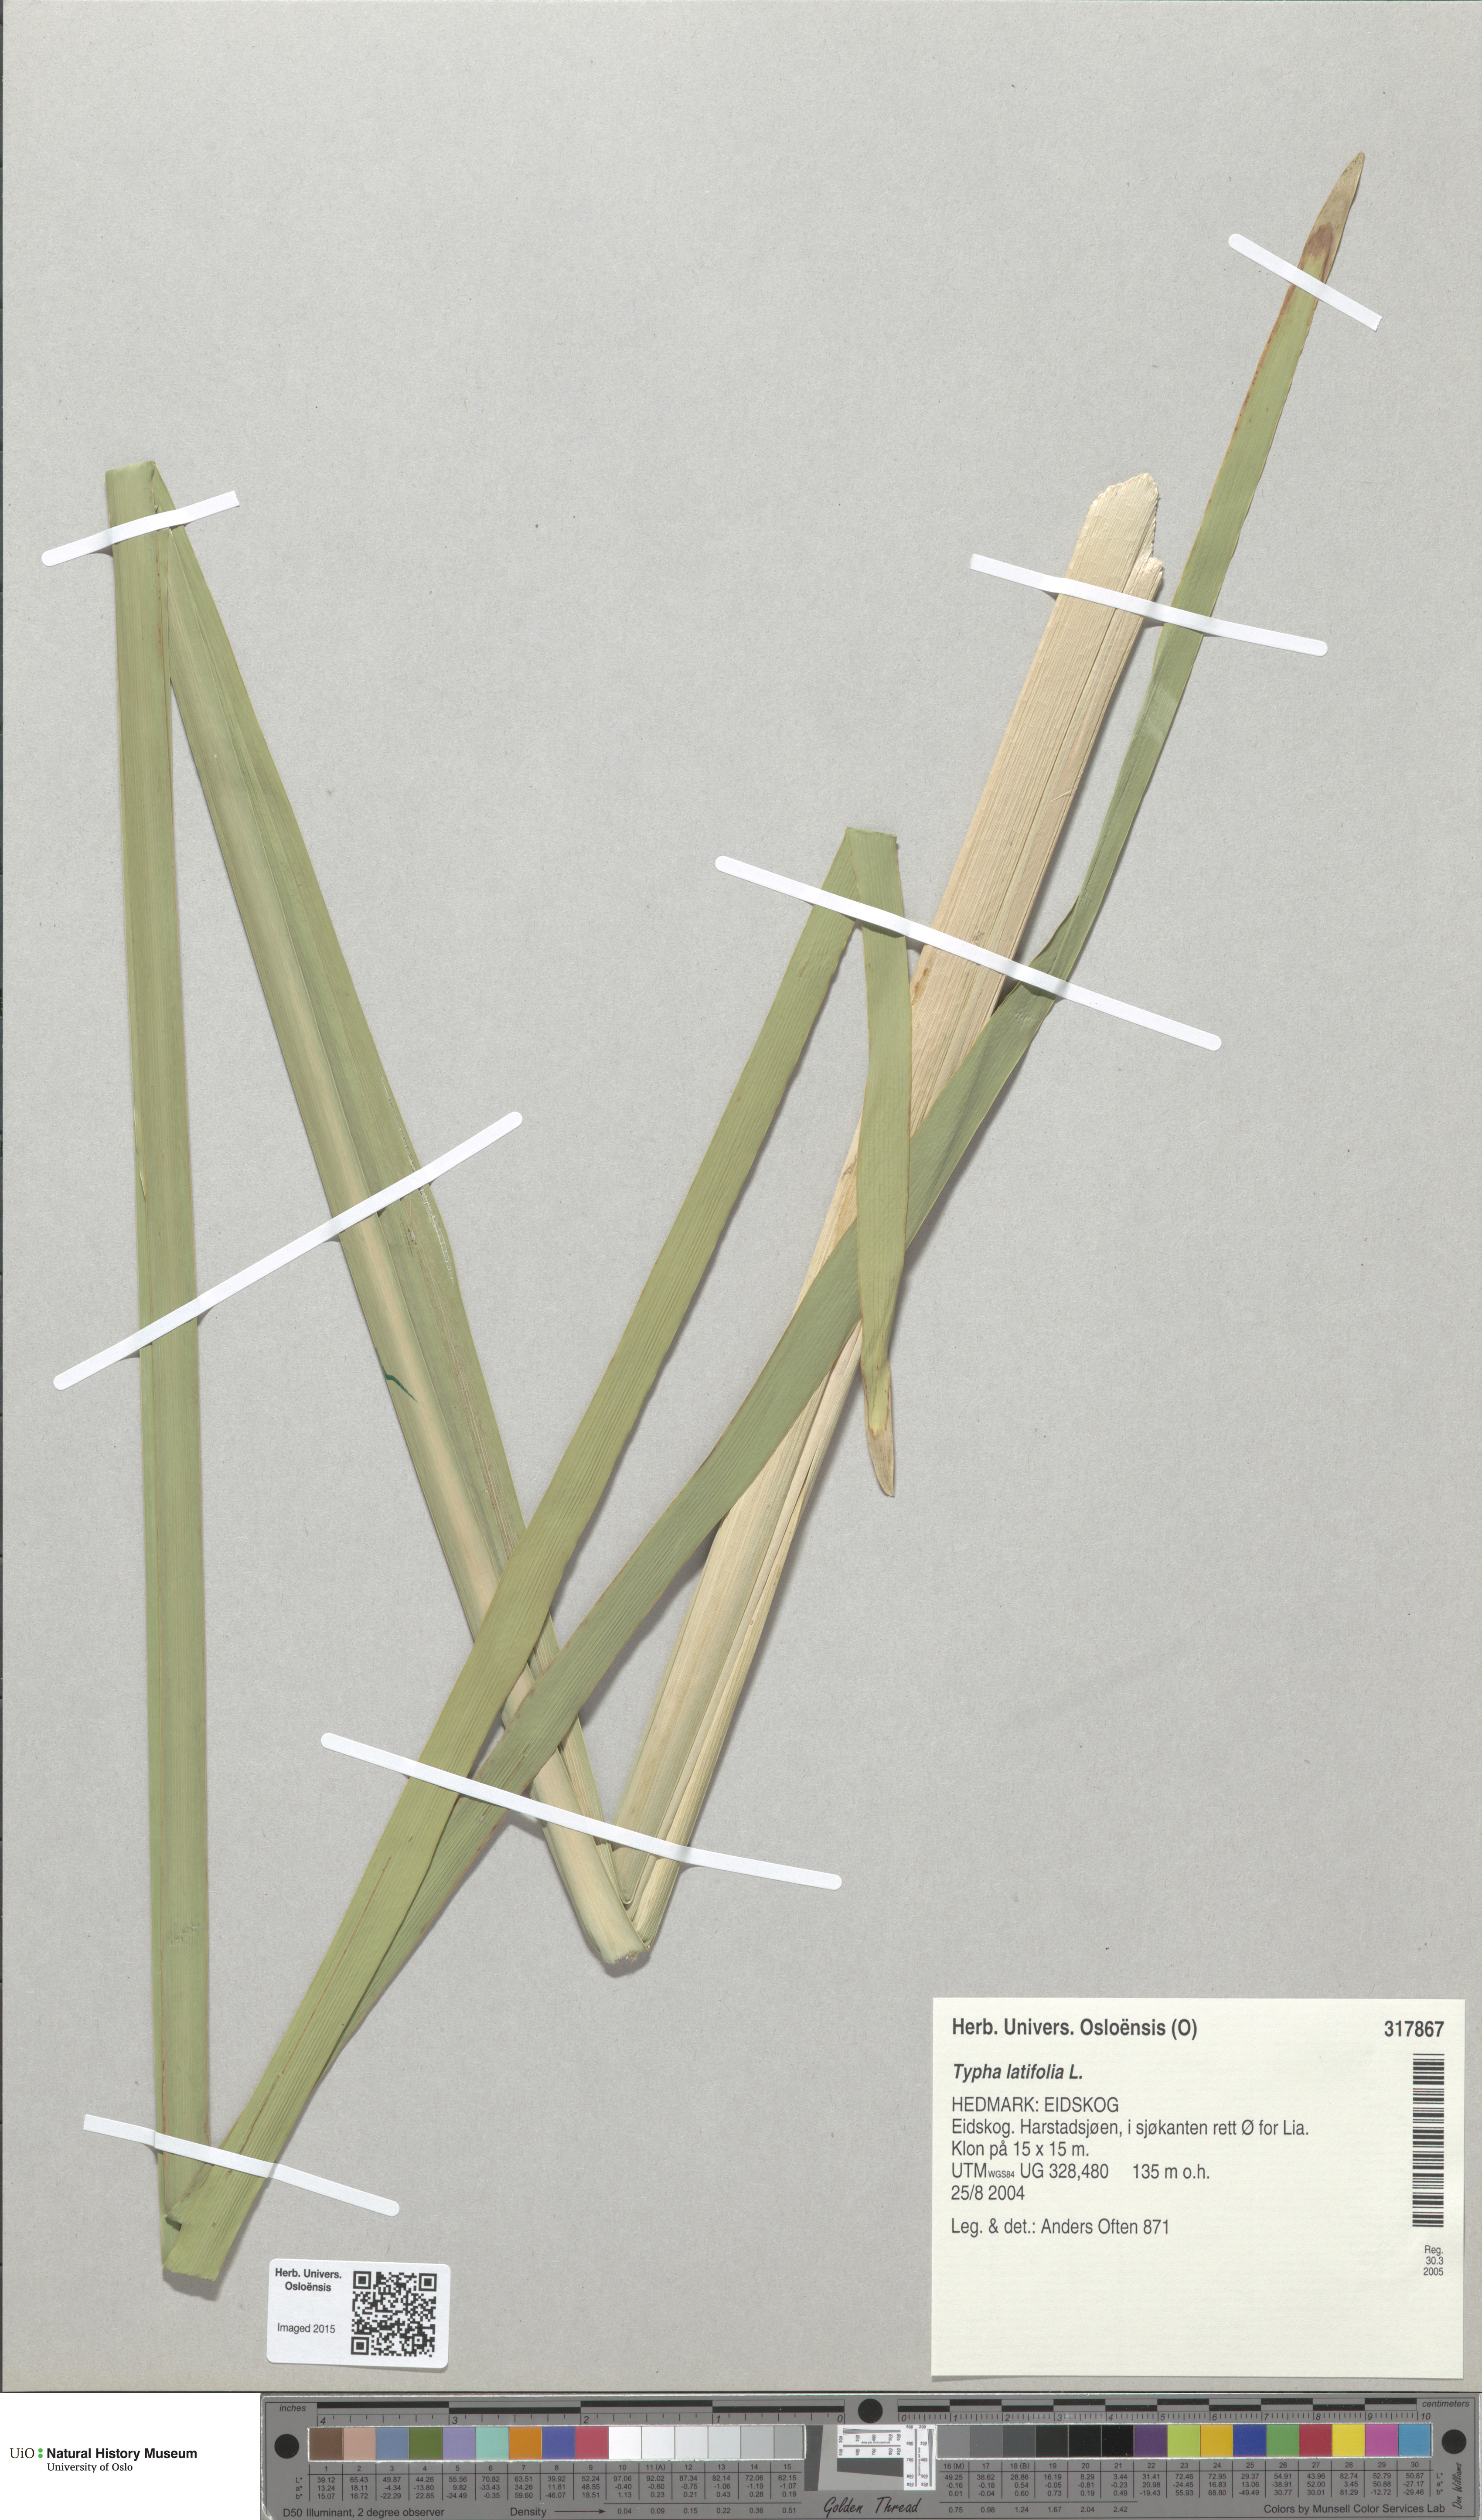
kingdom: Plantae
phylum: Tracheophyta
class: Liliopsida
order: Poales
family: Typhaceae
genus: Typha
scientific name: Typha latifolia
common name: Broadleaf cattail
